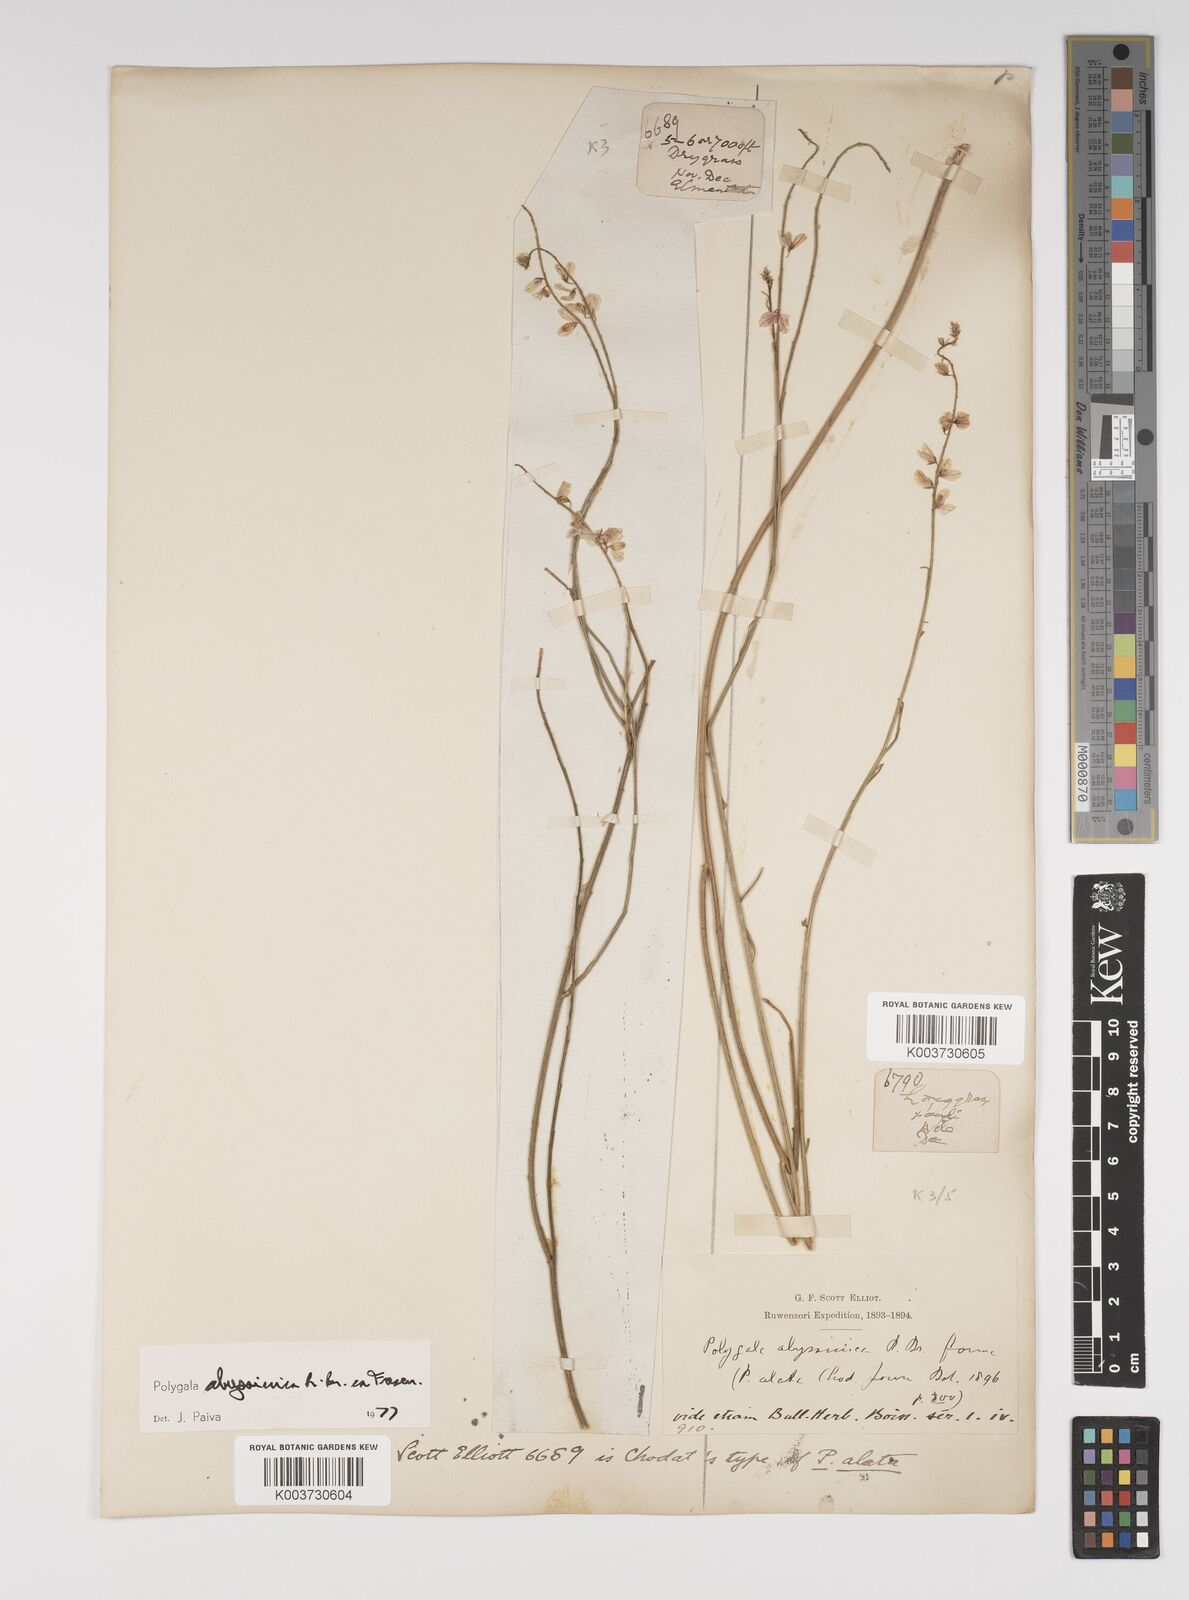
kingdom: Plantae
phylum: Tracheophyta
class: Magnoliopsida
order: Fabales
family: Polygalaceae
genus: Polygala
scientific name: Polygala abyssinica
